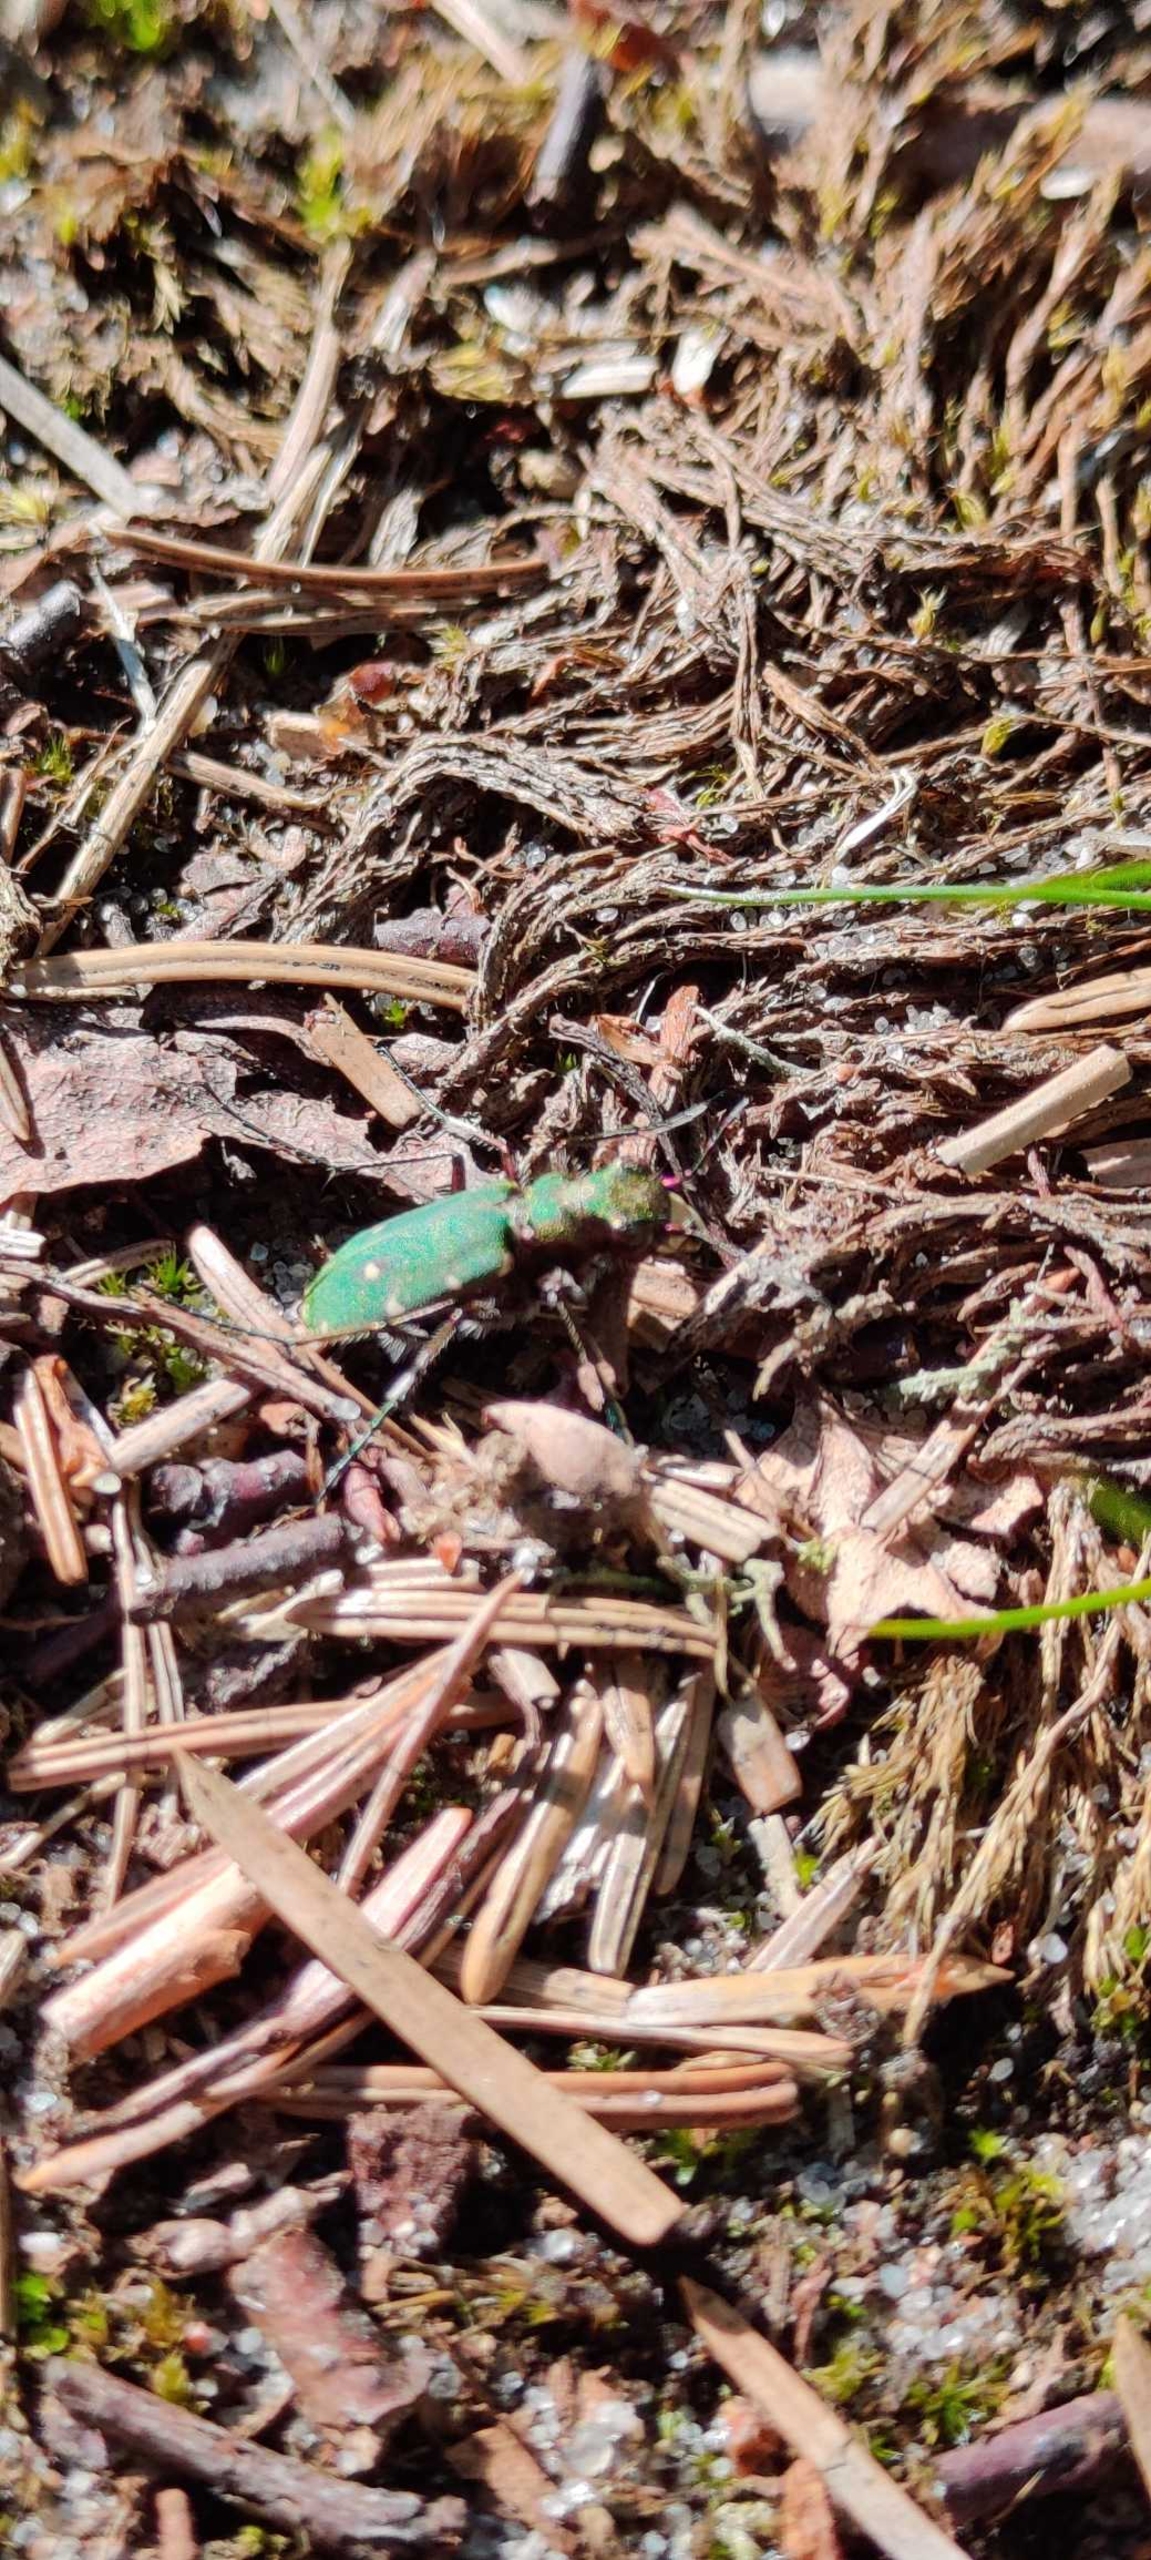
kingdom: Animalia
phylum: Arthropoda
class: Insecta
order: Coleoptera
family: Carabidae
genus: Cicindela
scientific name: Cicindela campestris
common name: Grøn sandspringer
